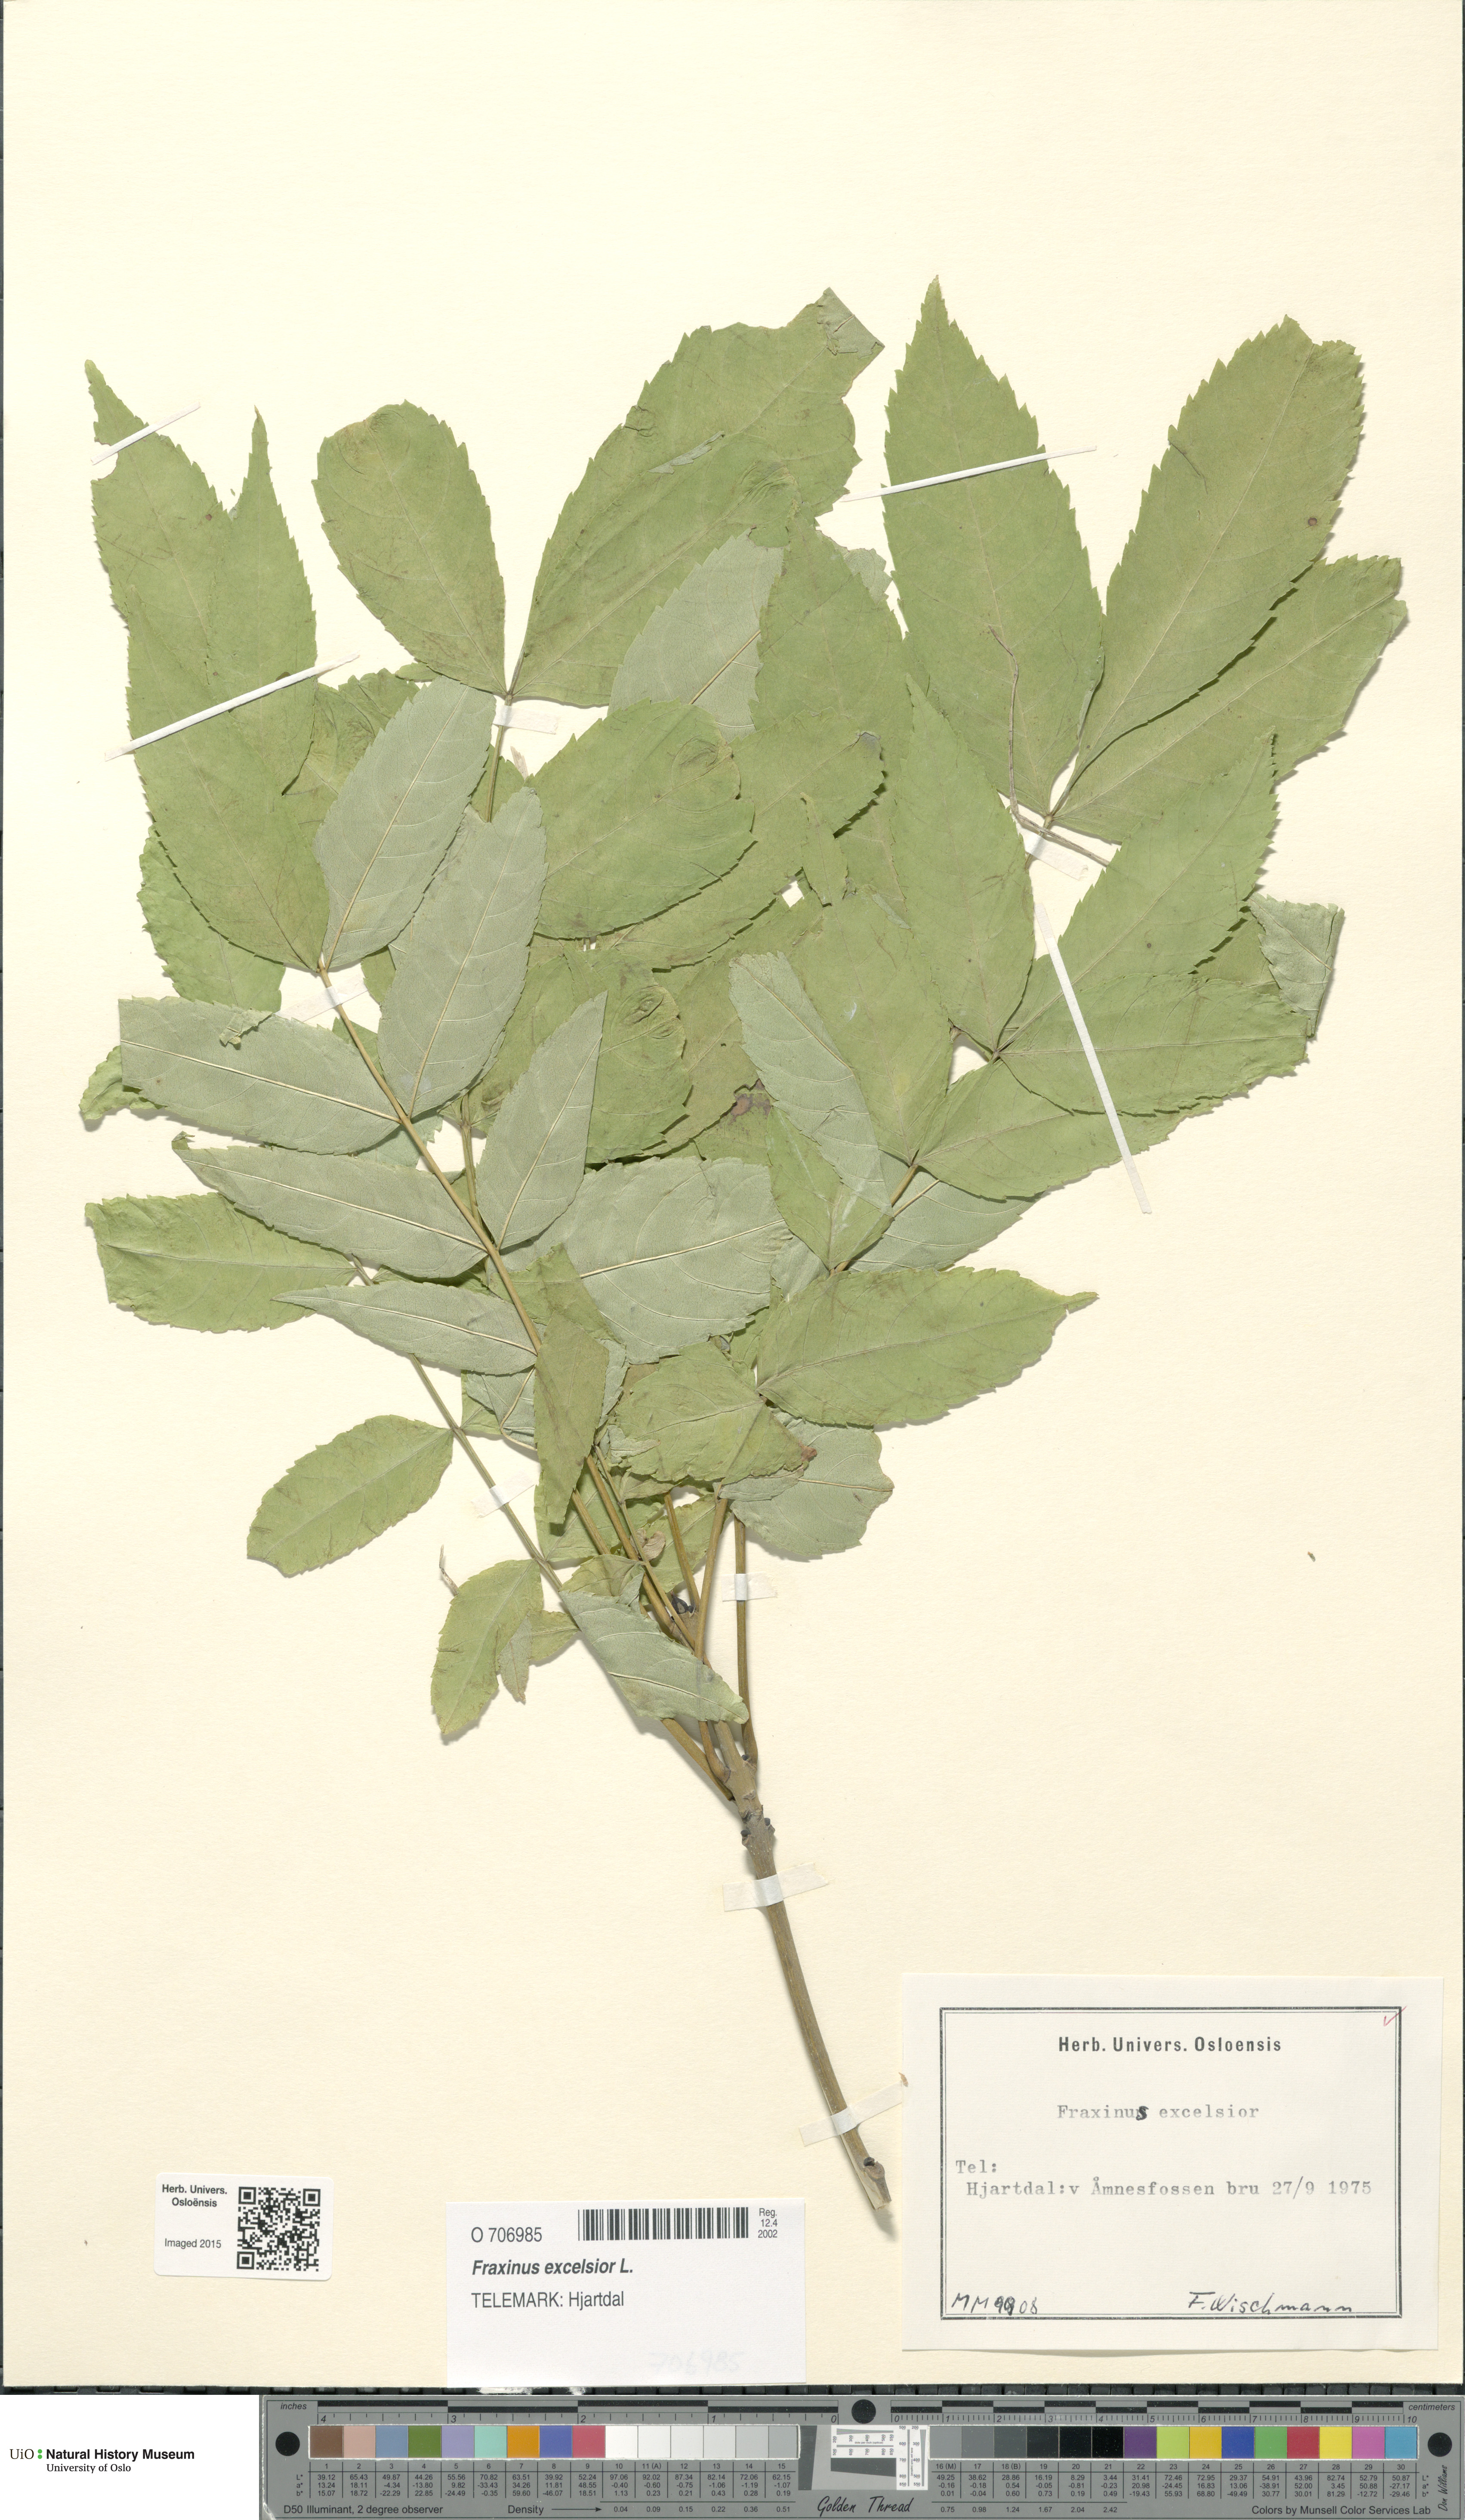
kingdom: Plantae
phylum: Tracheophyta
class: Magnoliopsida
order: Lamiales
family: Oleaceae
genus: Fraxinus
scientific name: Fraxinus excelsior
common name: European ash
